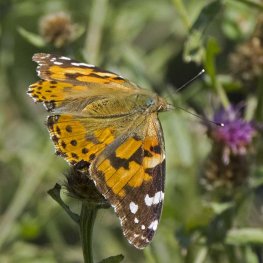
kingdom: Animalia
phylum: Arthropoda
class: Insecta
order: Lepidoptera
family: Nymphalidae
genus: Vanessa
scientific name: Vanessa cardui
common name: Painted Lady
